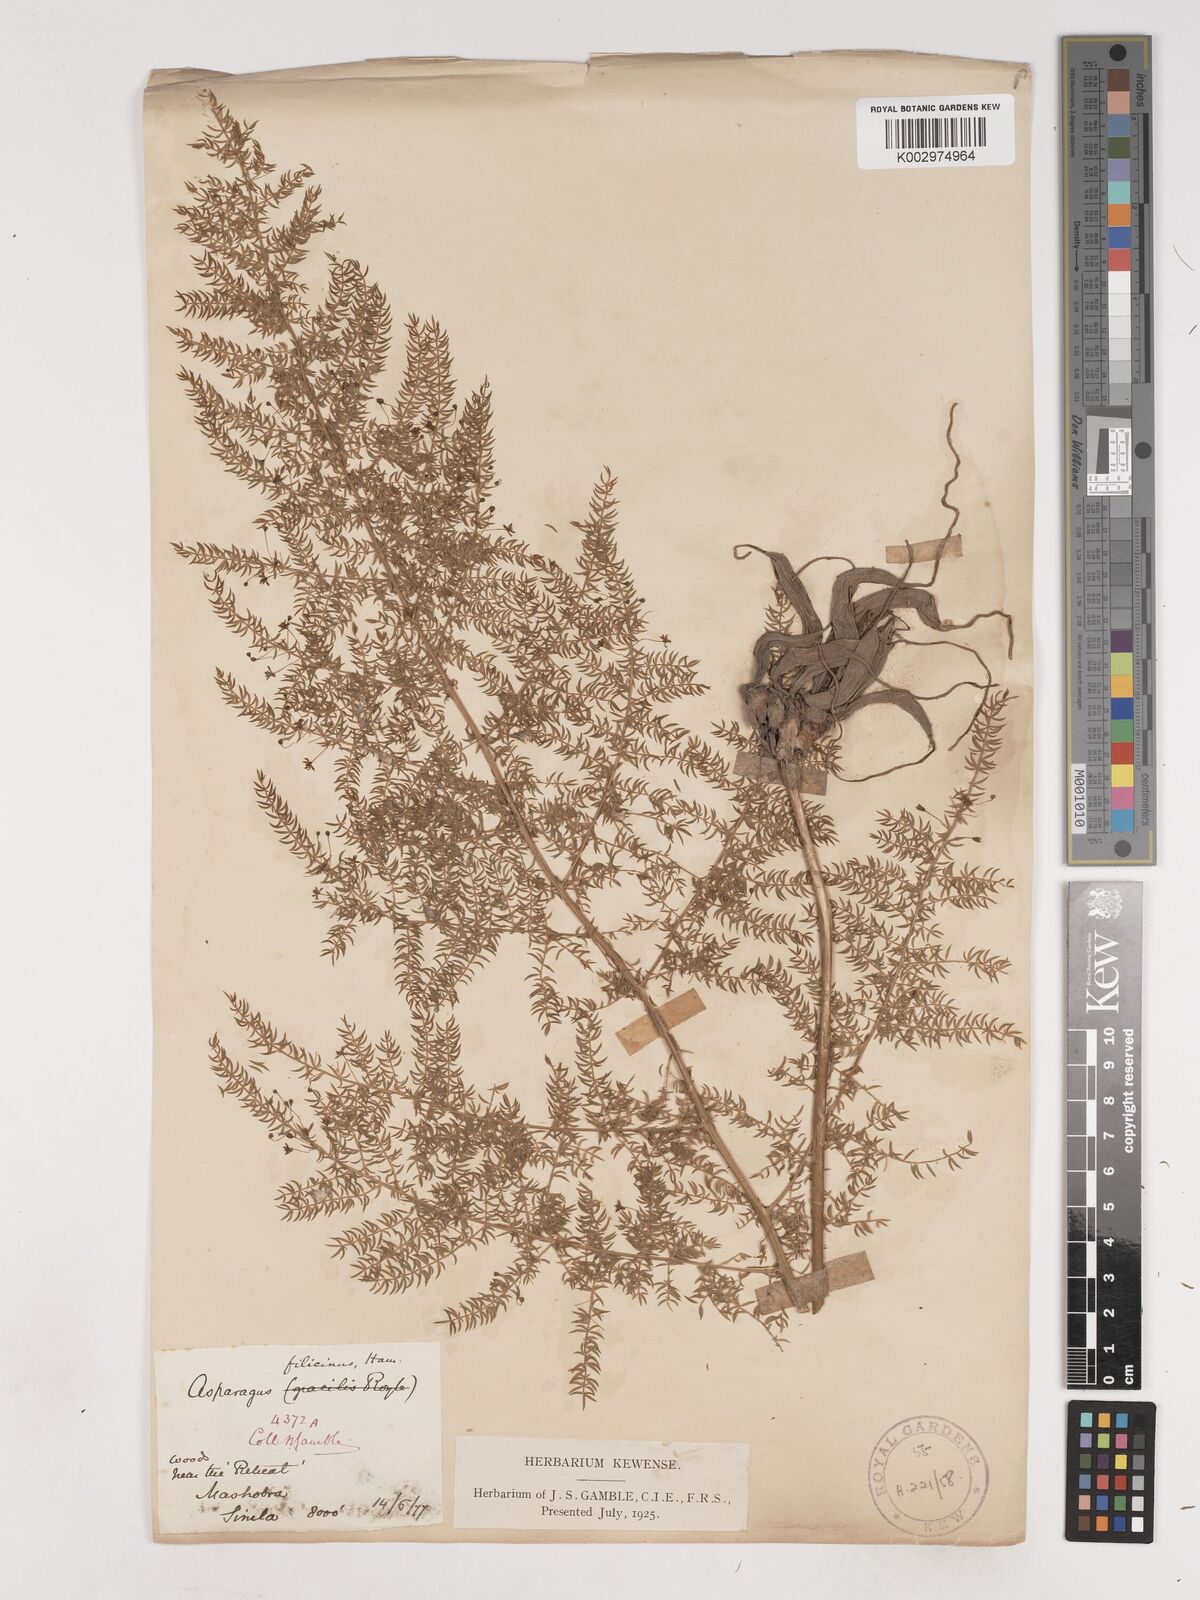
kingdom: Plantae
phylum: Tracheophyta
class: Liliopsida
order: Asparagales
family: Asparagaceae
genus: Asparagus
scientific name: Asparagus filicinus
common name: Fern asparagus
